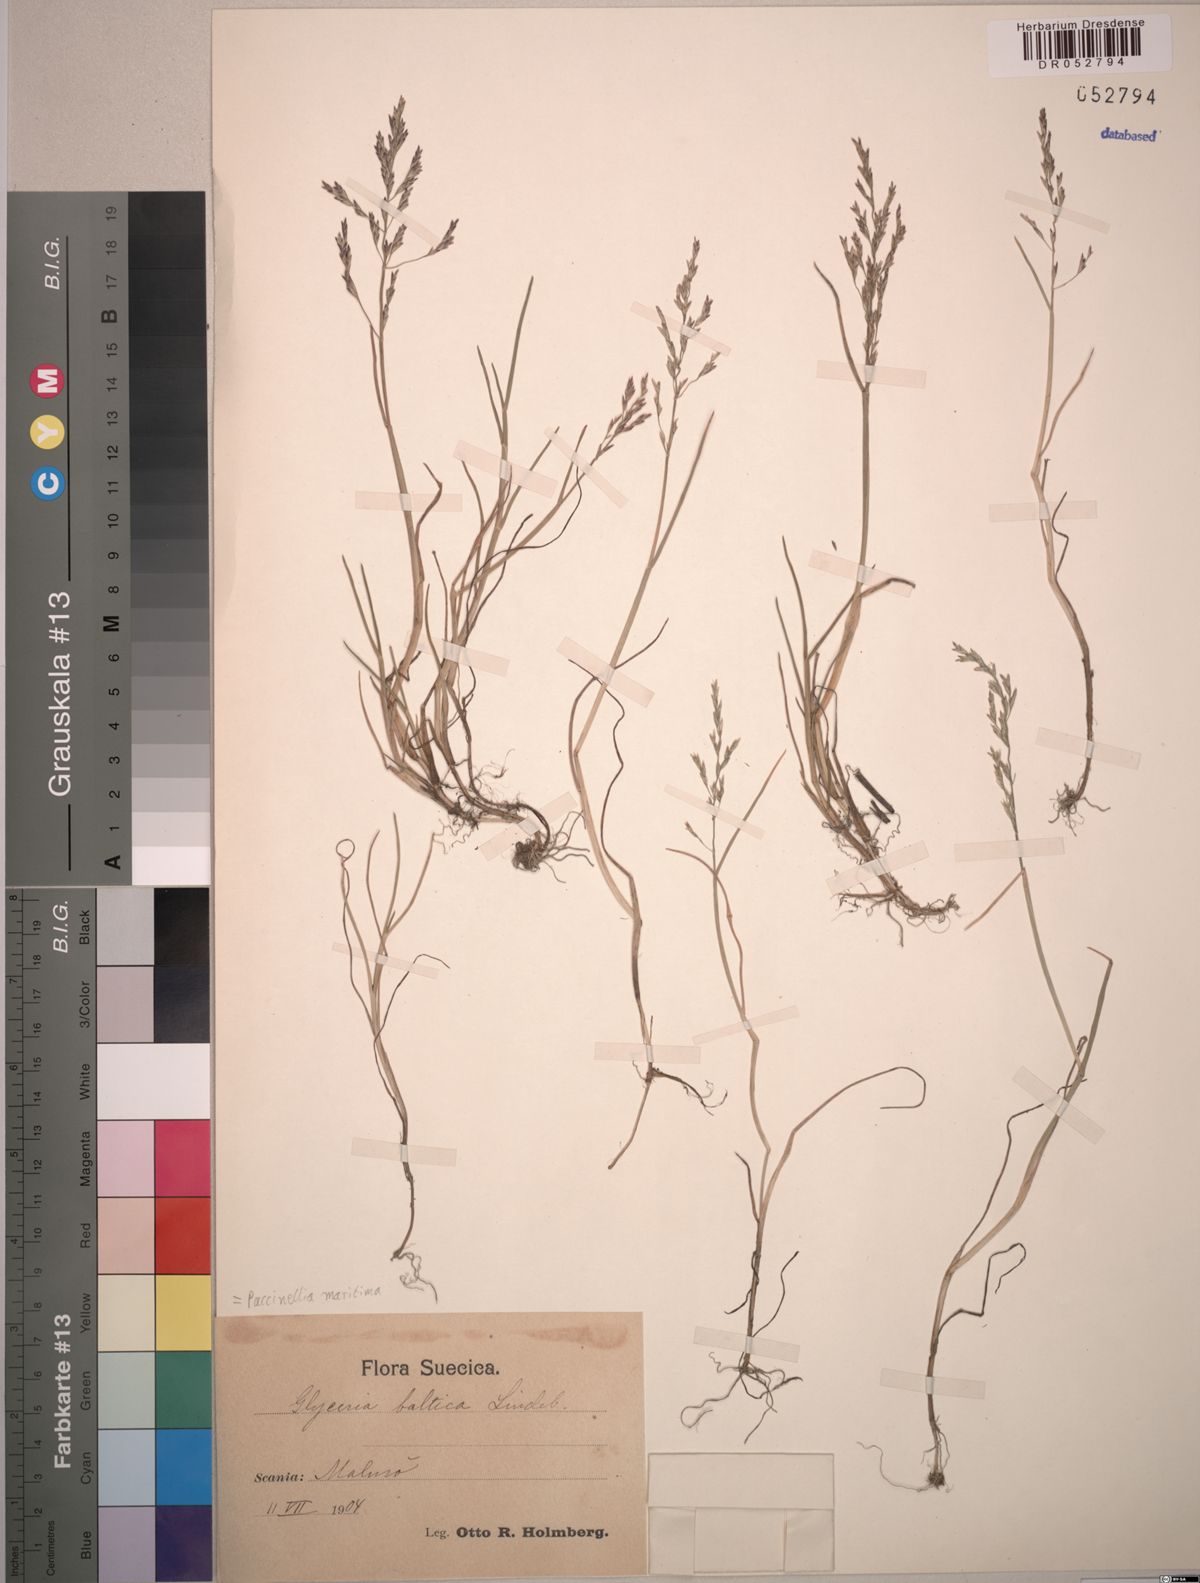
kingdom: Plantae
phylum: Tracheophyta
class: Liliopsida
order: Poales
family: Poaceae
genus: Puccinellia
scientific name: Puccinellia maritima
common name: Common saltmarsh grass
